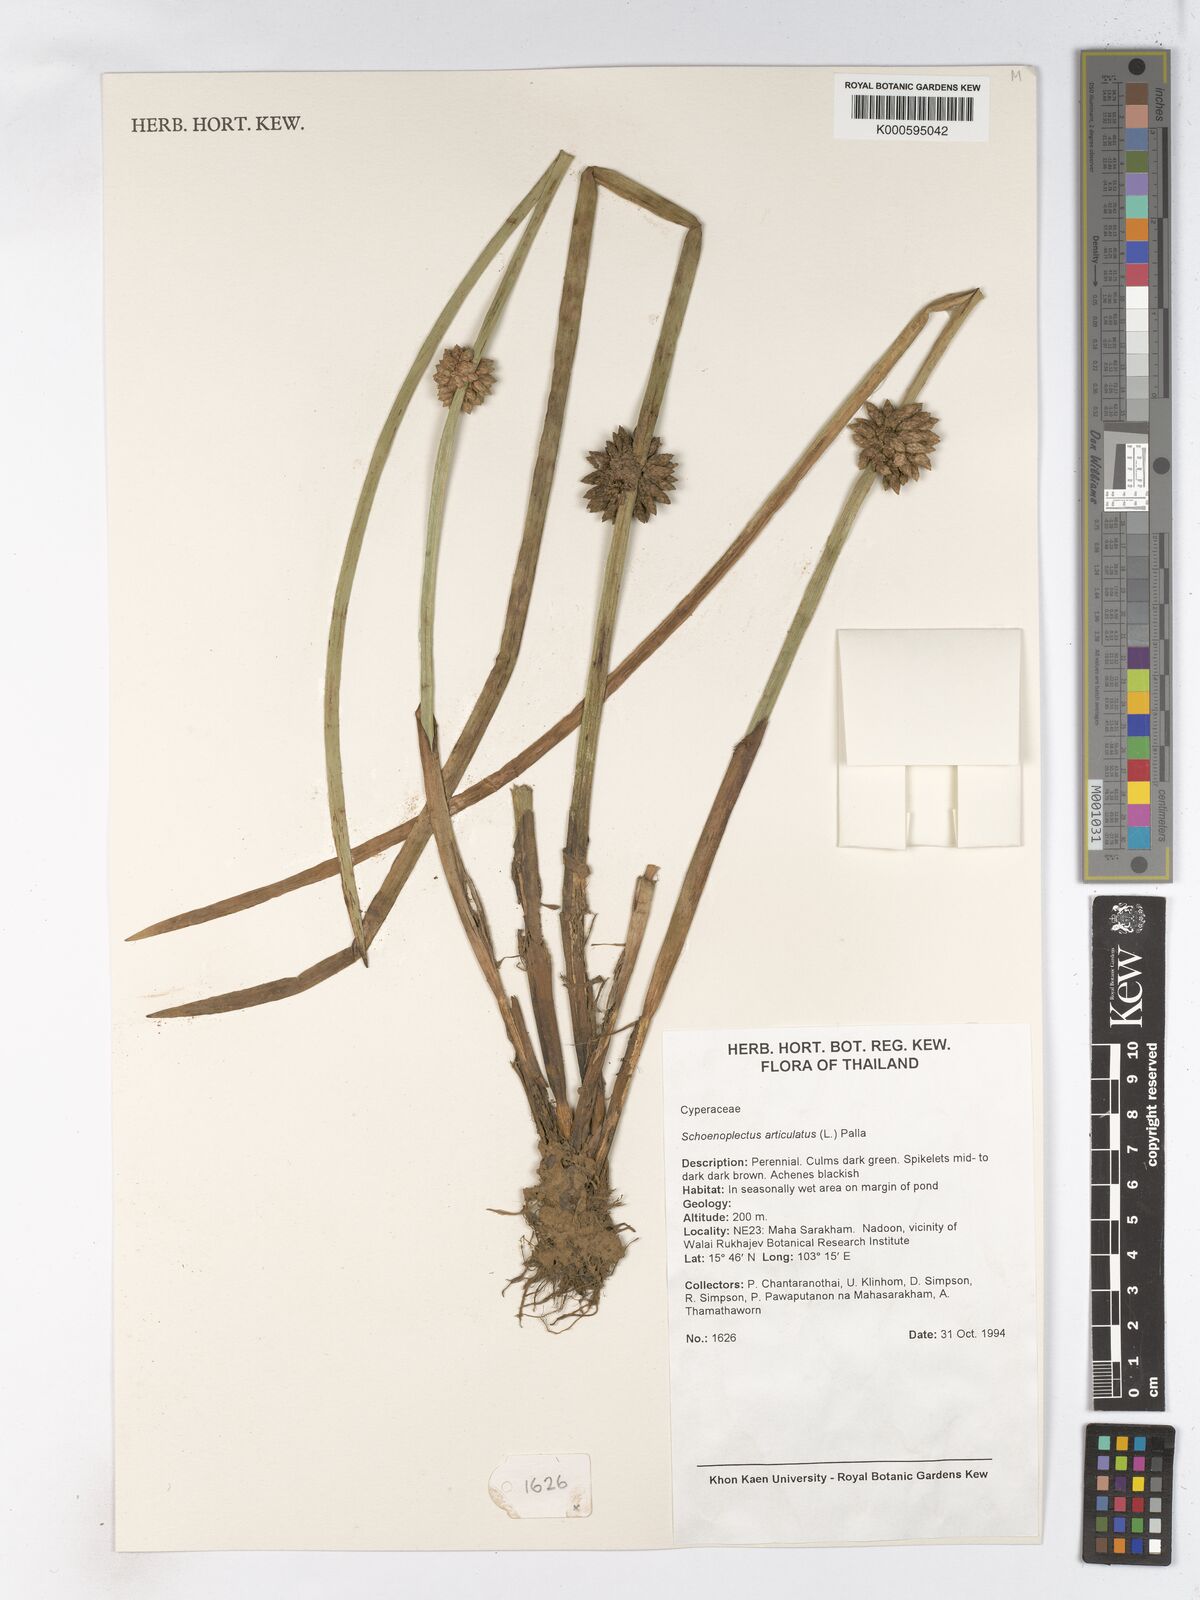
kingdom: Plantae
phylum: Tracheophyta
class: Liliopsida
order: Poales
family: Cyperaceae
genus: Schoenoplectiella
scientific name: Schoenoplectiella articulata
